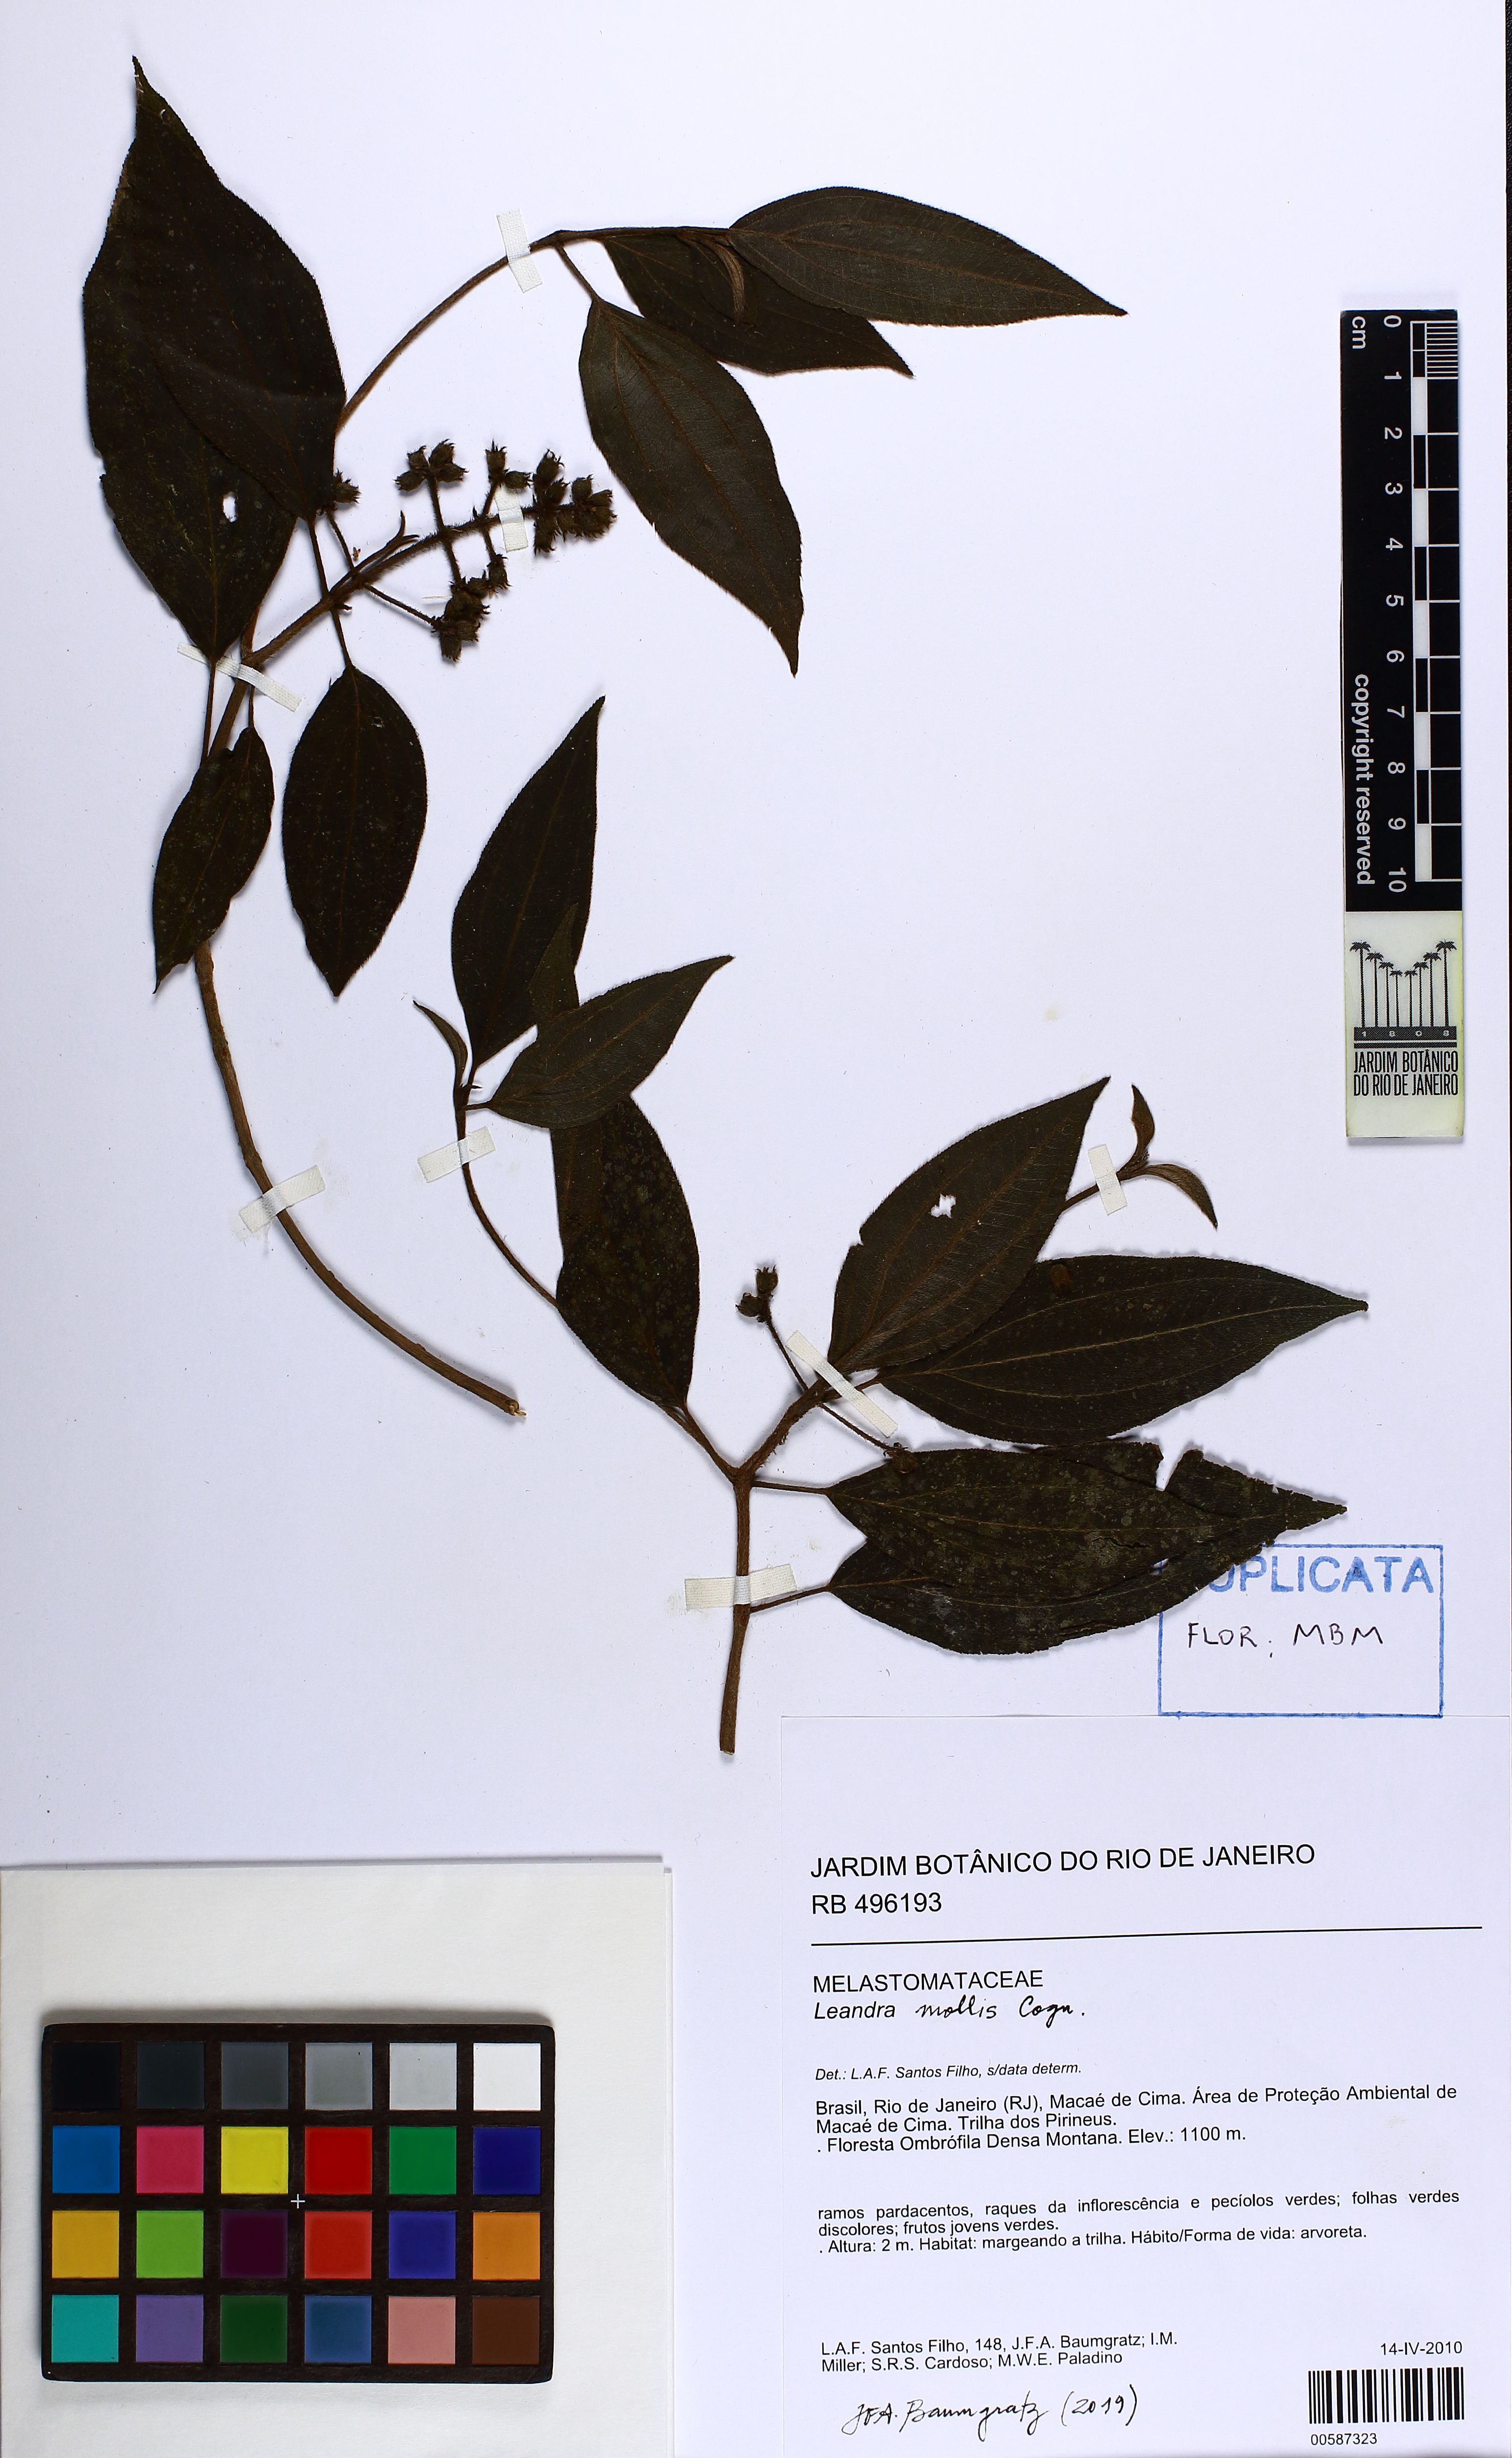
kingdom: Plantae
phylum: Tracheophyta
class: Magnoliopsida
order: Myrtales
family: Melastomataceae
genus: Miconia
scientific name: Miconia leamollis
